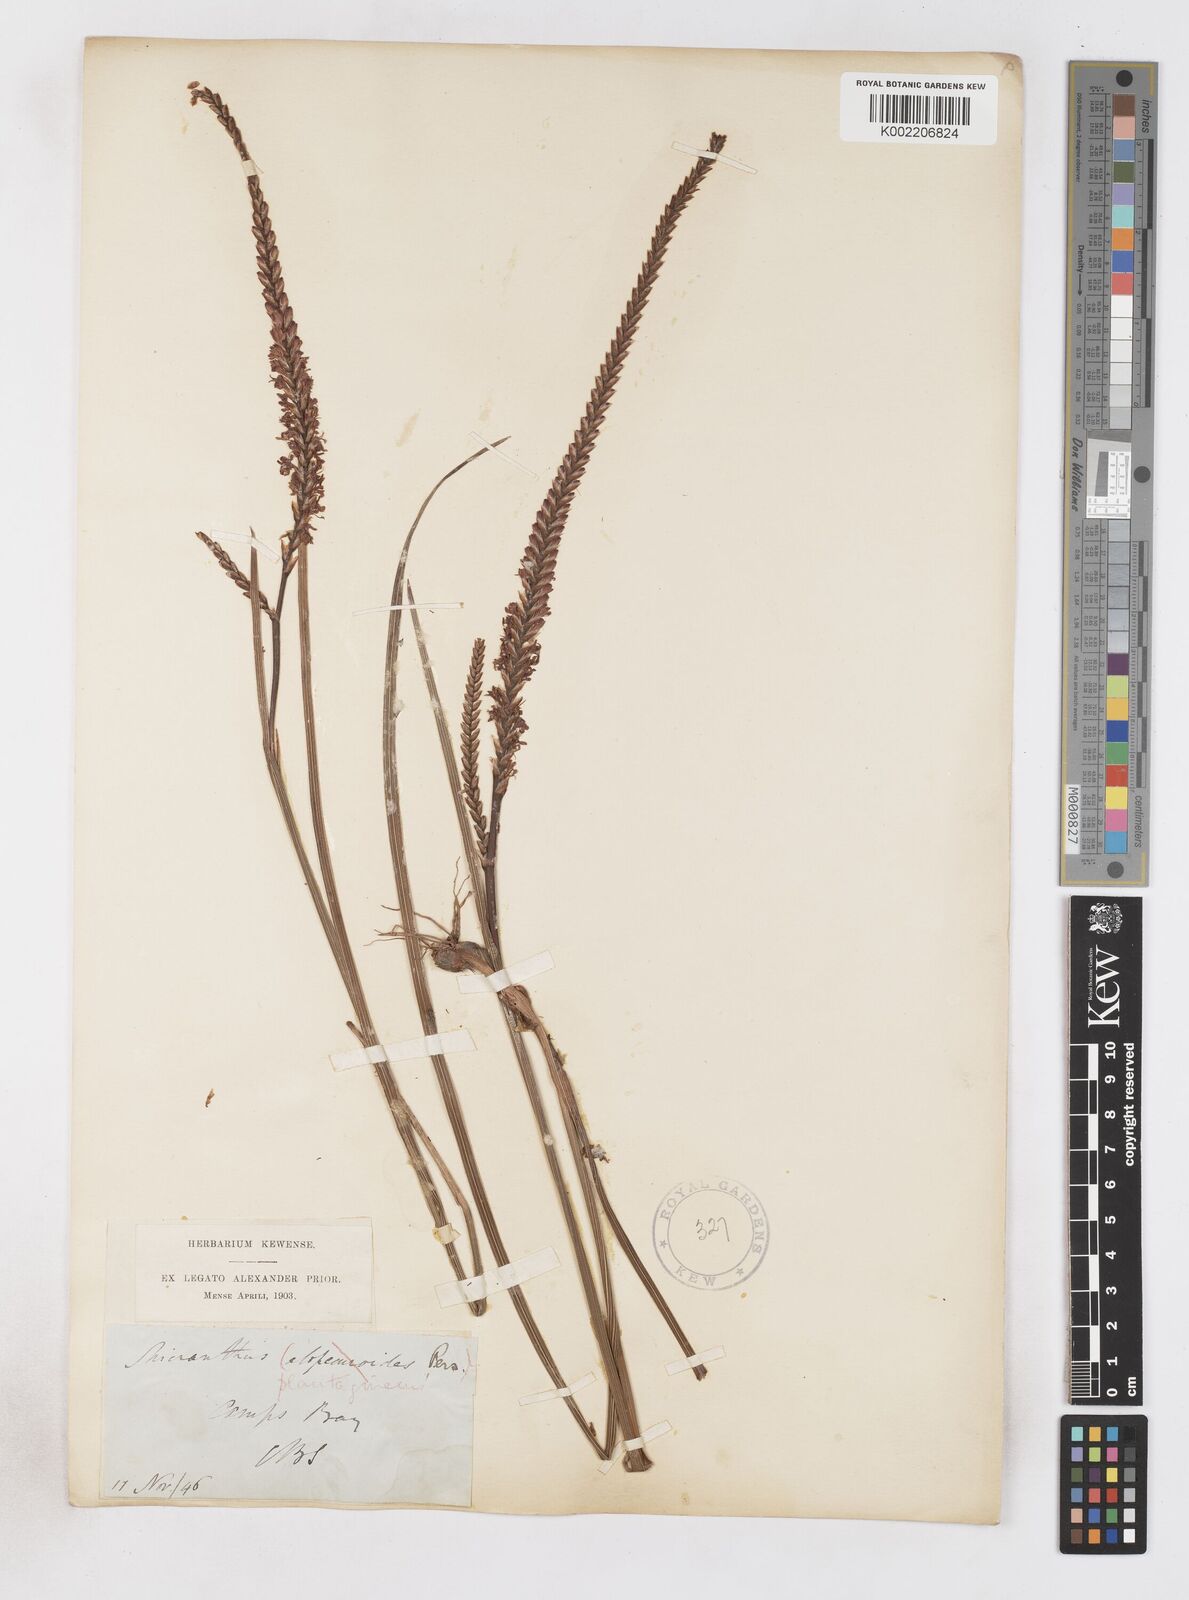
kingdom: Plantae
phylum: Tracheophyta
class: Liliopsida
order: Asparagales
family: Iridaceae
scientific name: Iridaceae
